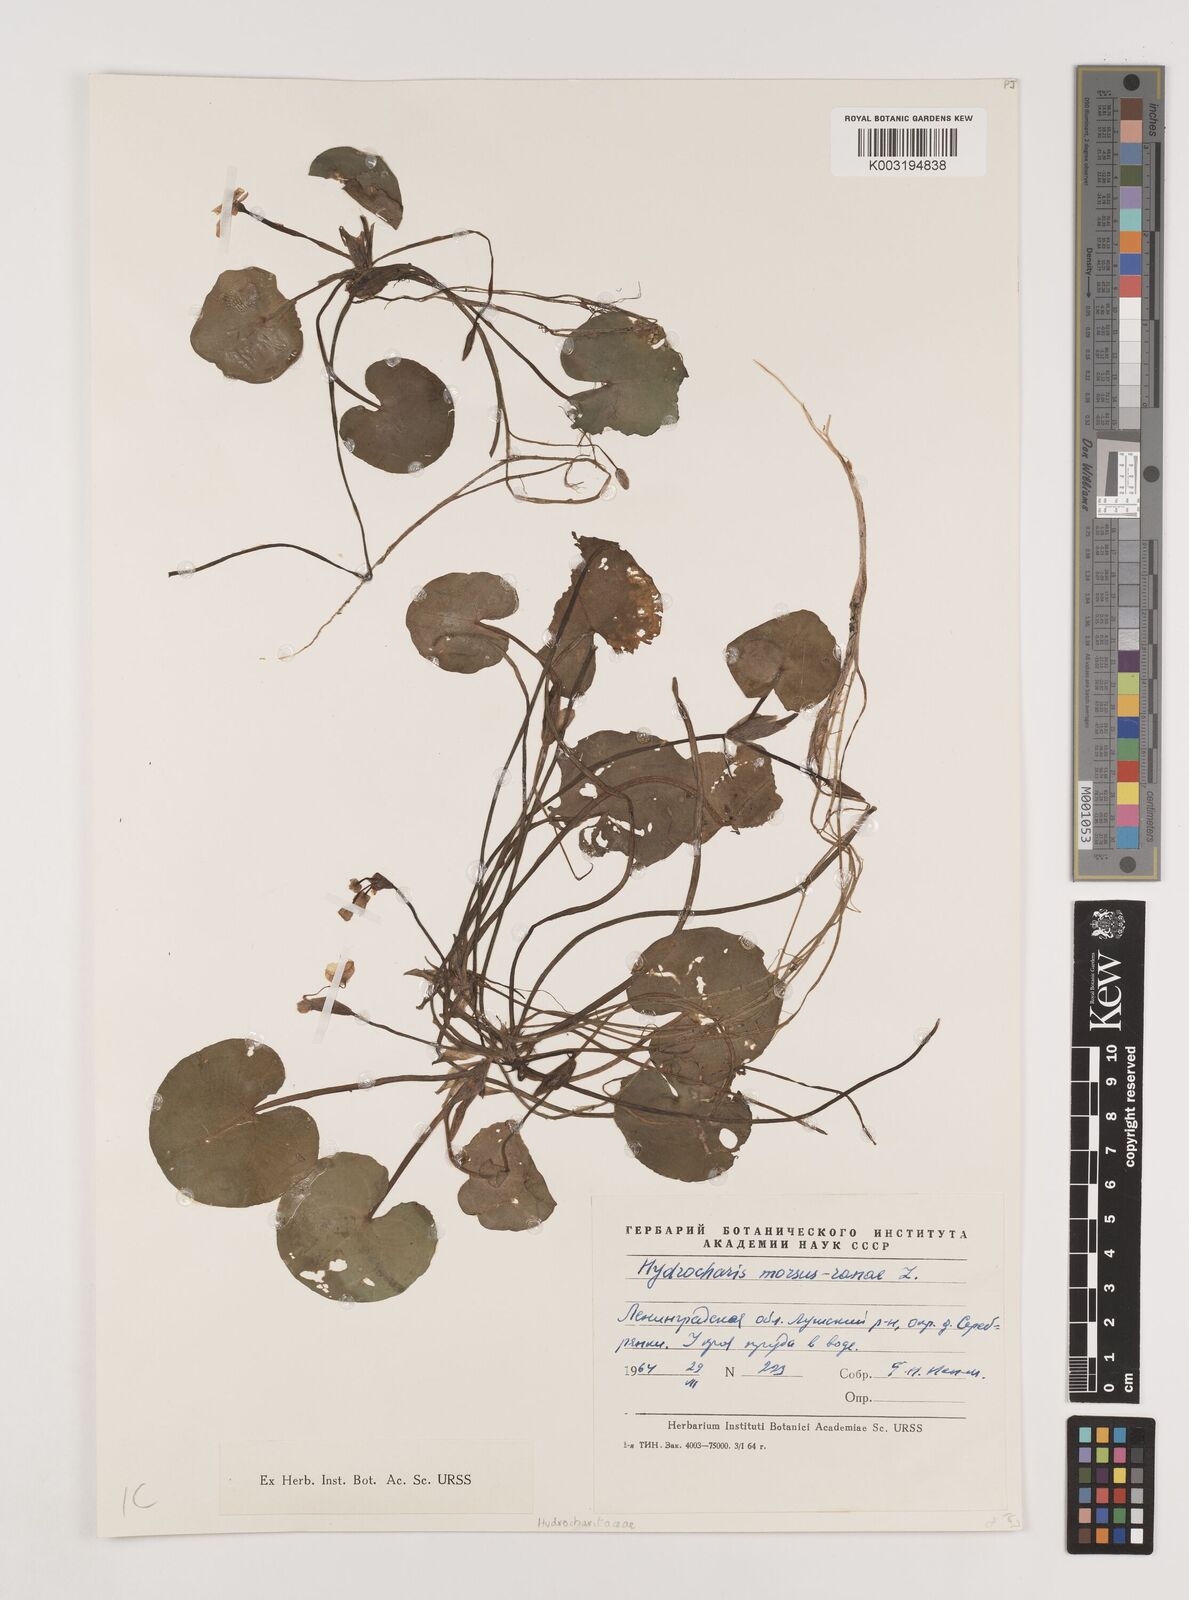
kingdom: Plantae
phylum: Tracheophyta
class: Liliopsida
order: Alismatales
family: Hydrocharitaceae
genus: Hydrocharis
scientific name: Hydrocharis morsus-ranae
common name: Frogbit
